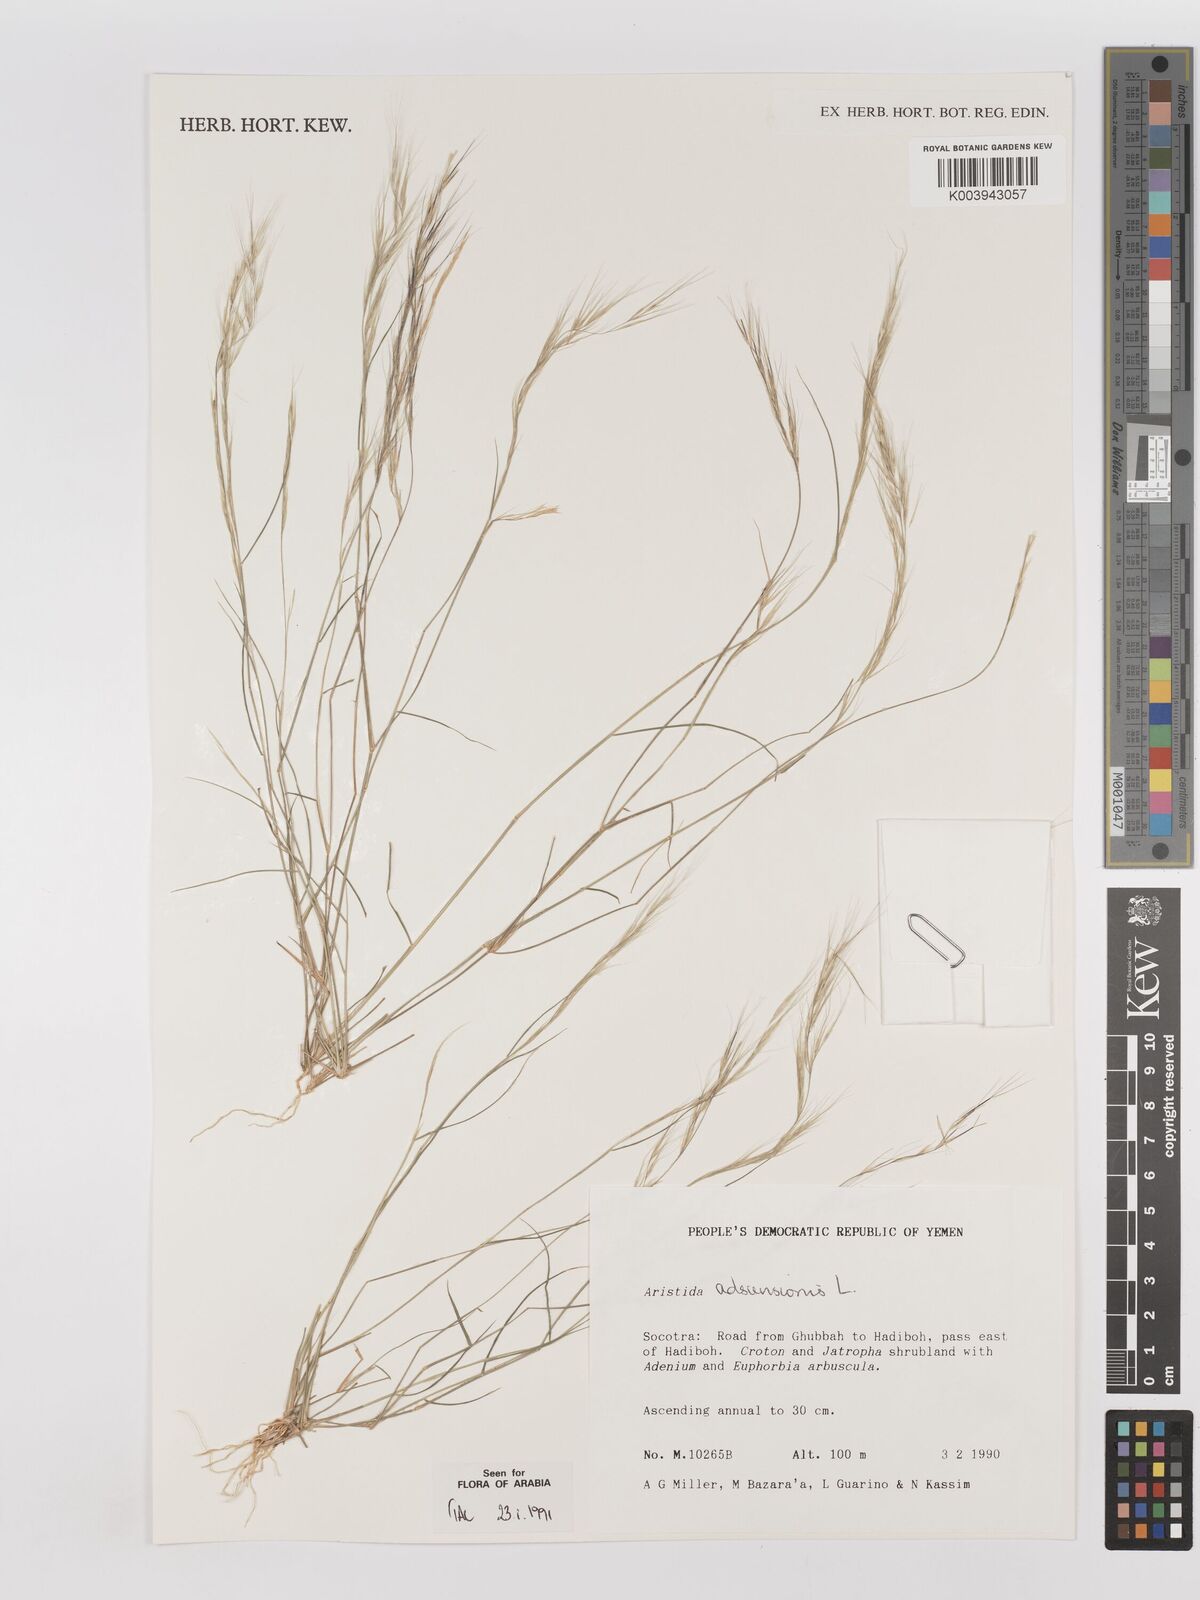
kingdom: Plantae
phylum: Tracheophyta
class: Liliopsida
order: Poales
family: Poaceae
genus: Aristida
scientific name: Aristida adscensionis
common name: Sixweeks threeawn
